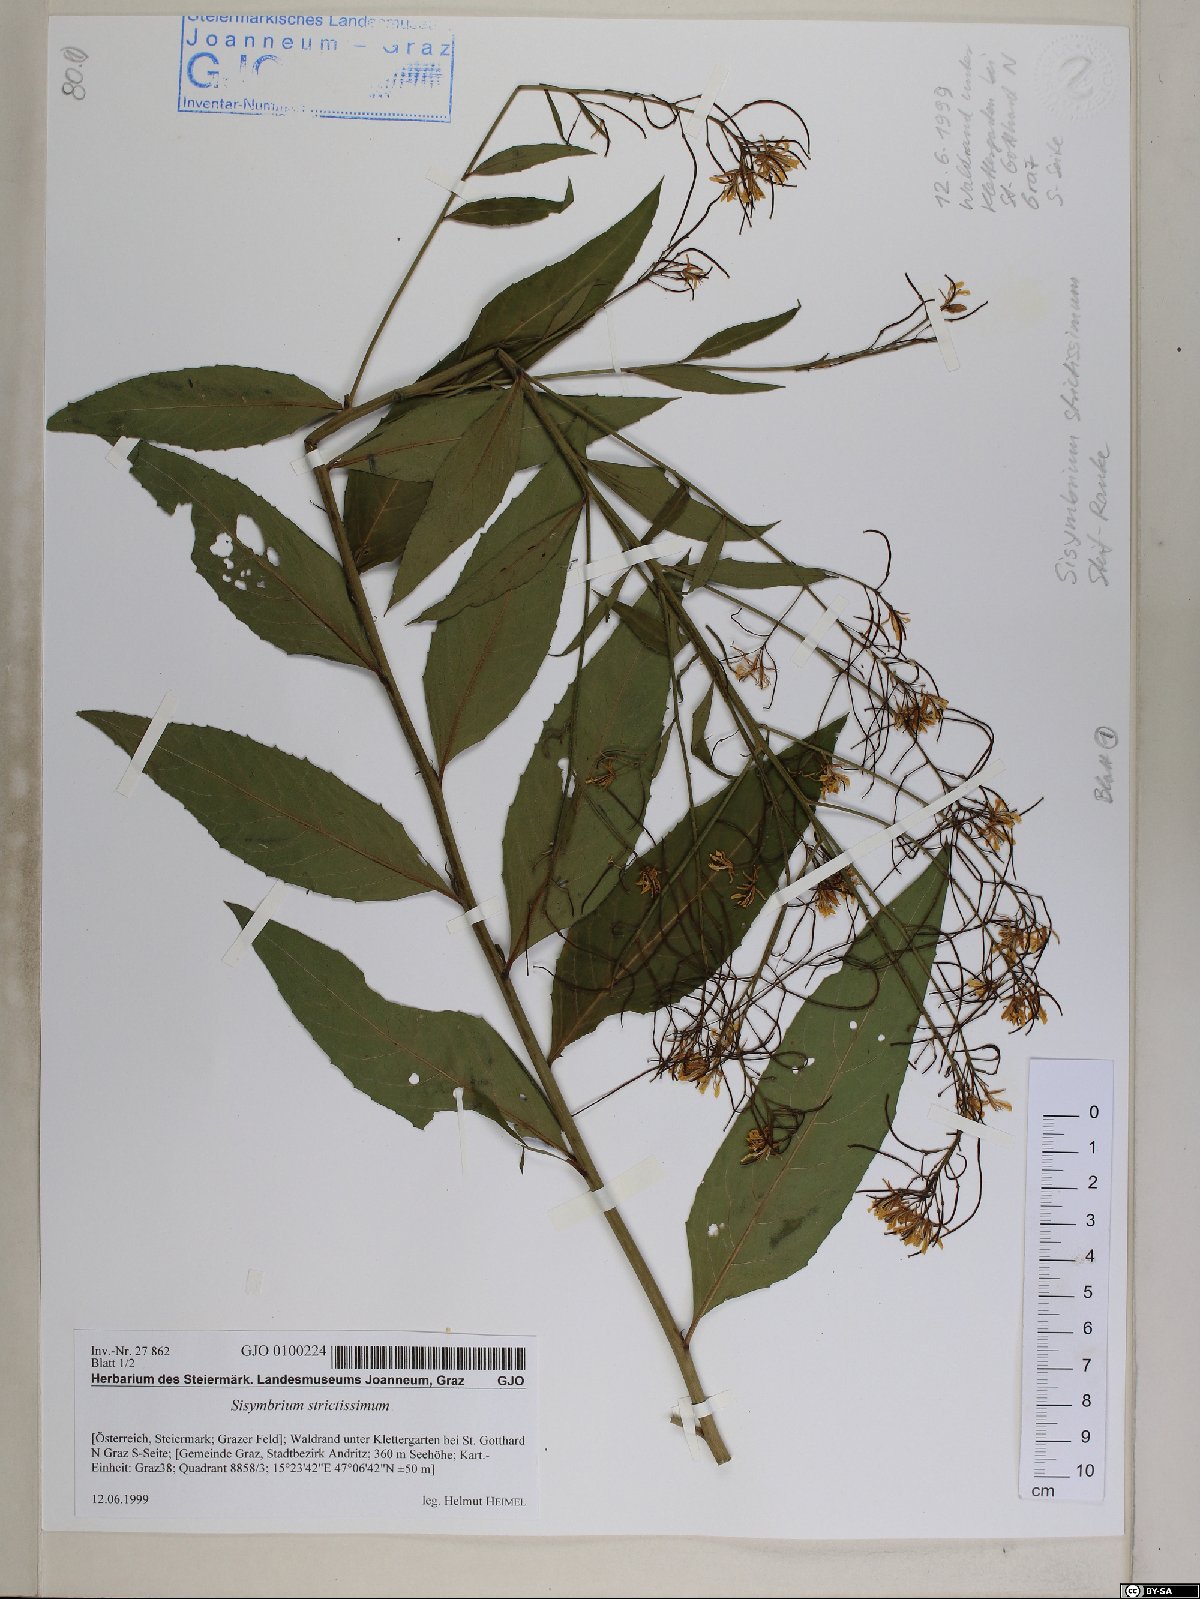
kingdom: Plantae
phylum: Tracheophyta
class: Magnoliopsida
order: Brassicales
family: Brassicaceae
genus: Sisymbrium
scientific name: Sisymbrium strictissimum
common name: Perennial rocket
